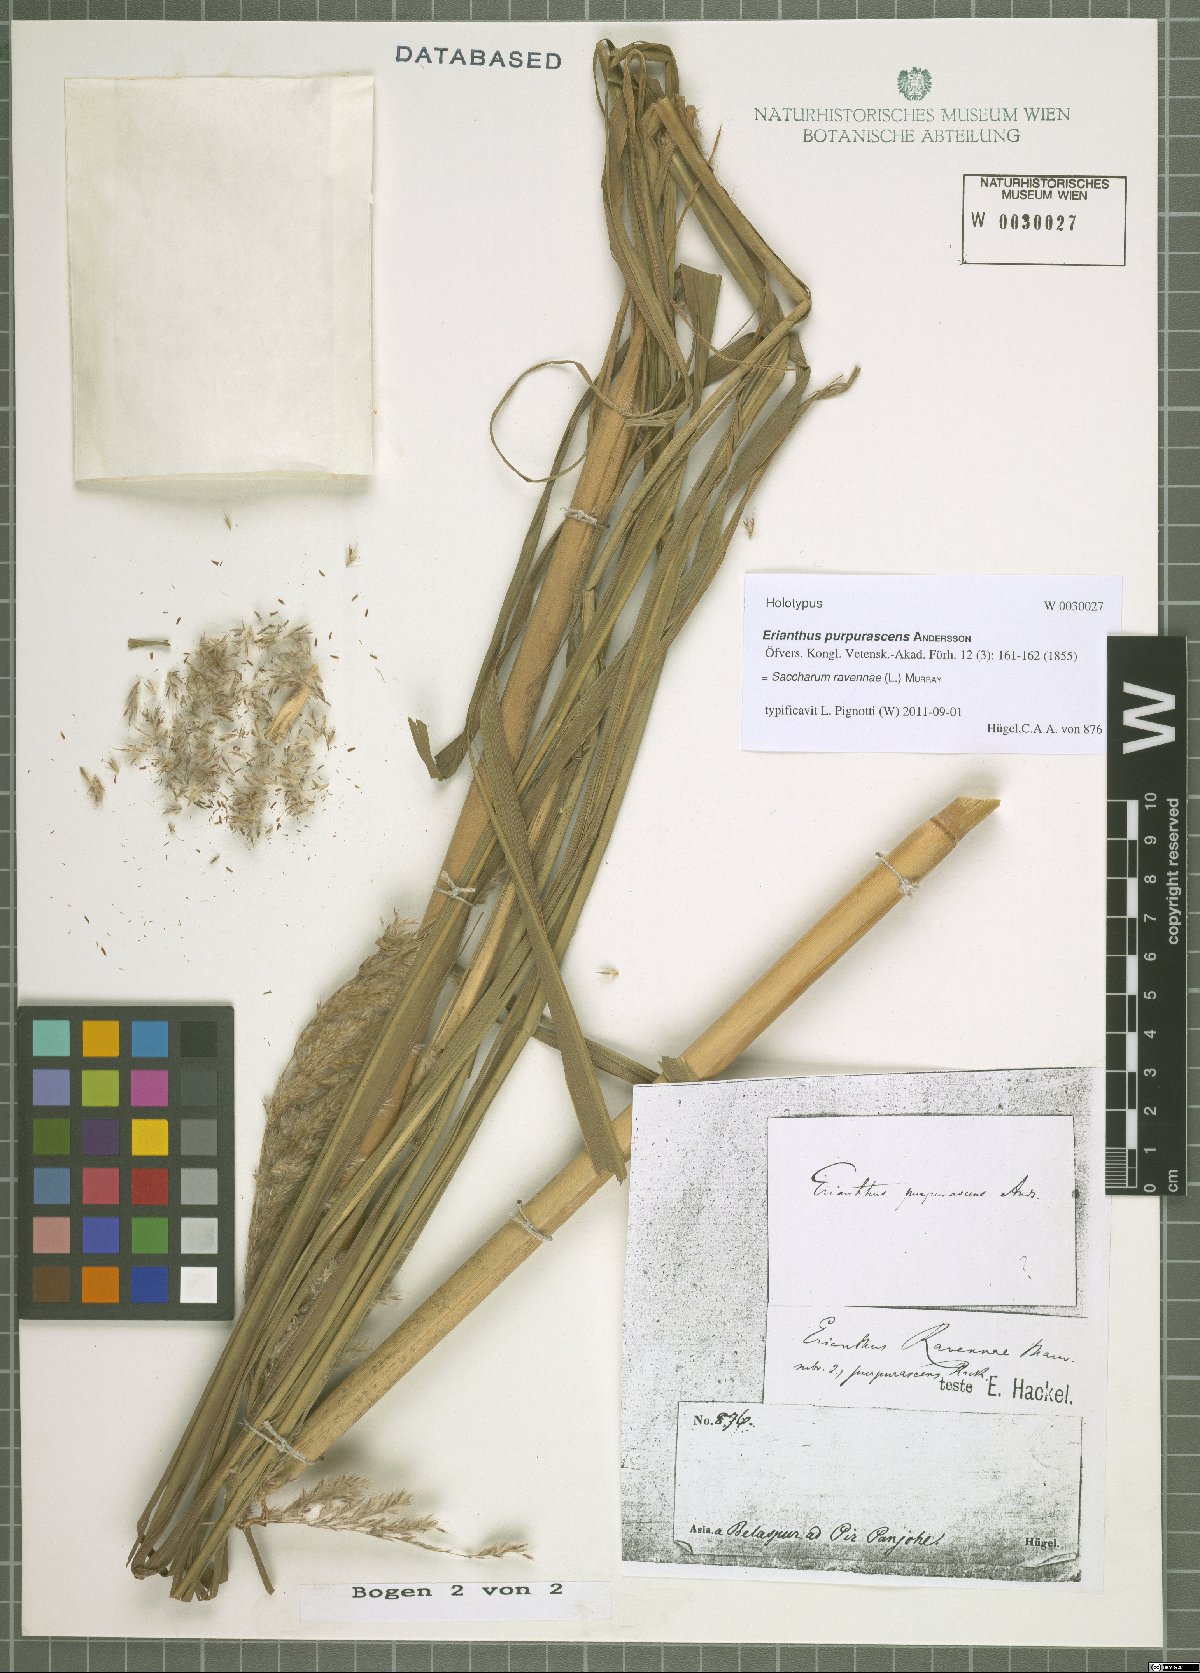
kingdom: Plantae
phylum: Tracheophyta
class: Liliopsida
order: Poales
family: Poaceae
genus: Tripidium
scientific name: Tripidium ravennae
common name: Ravenna grass
